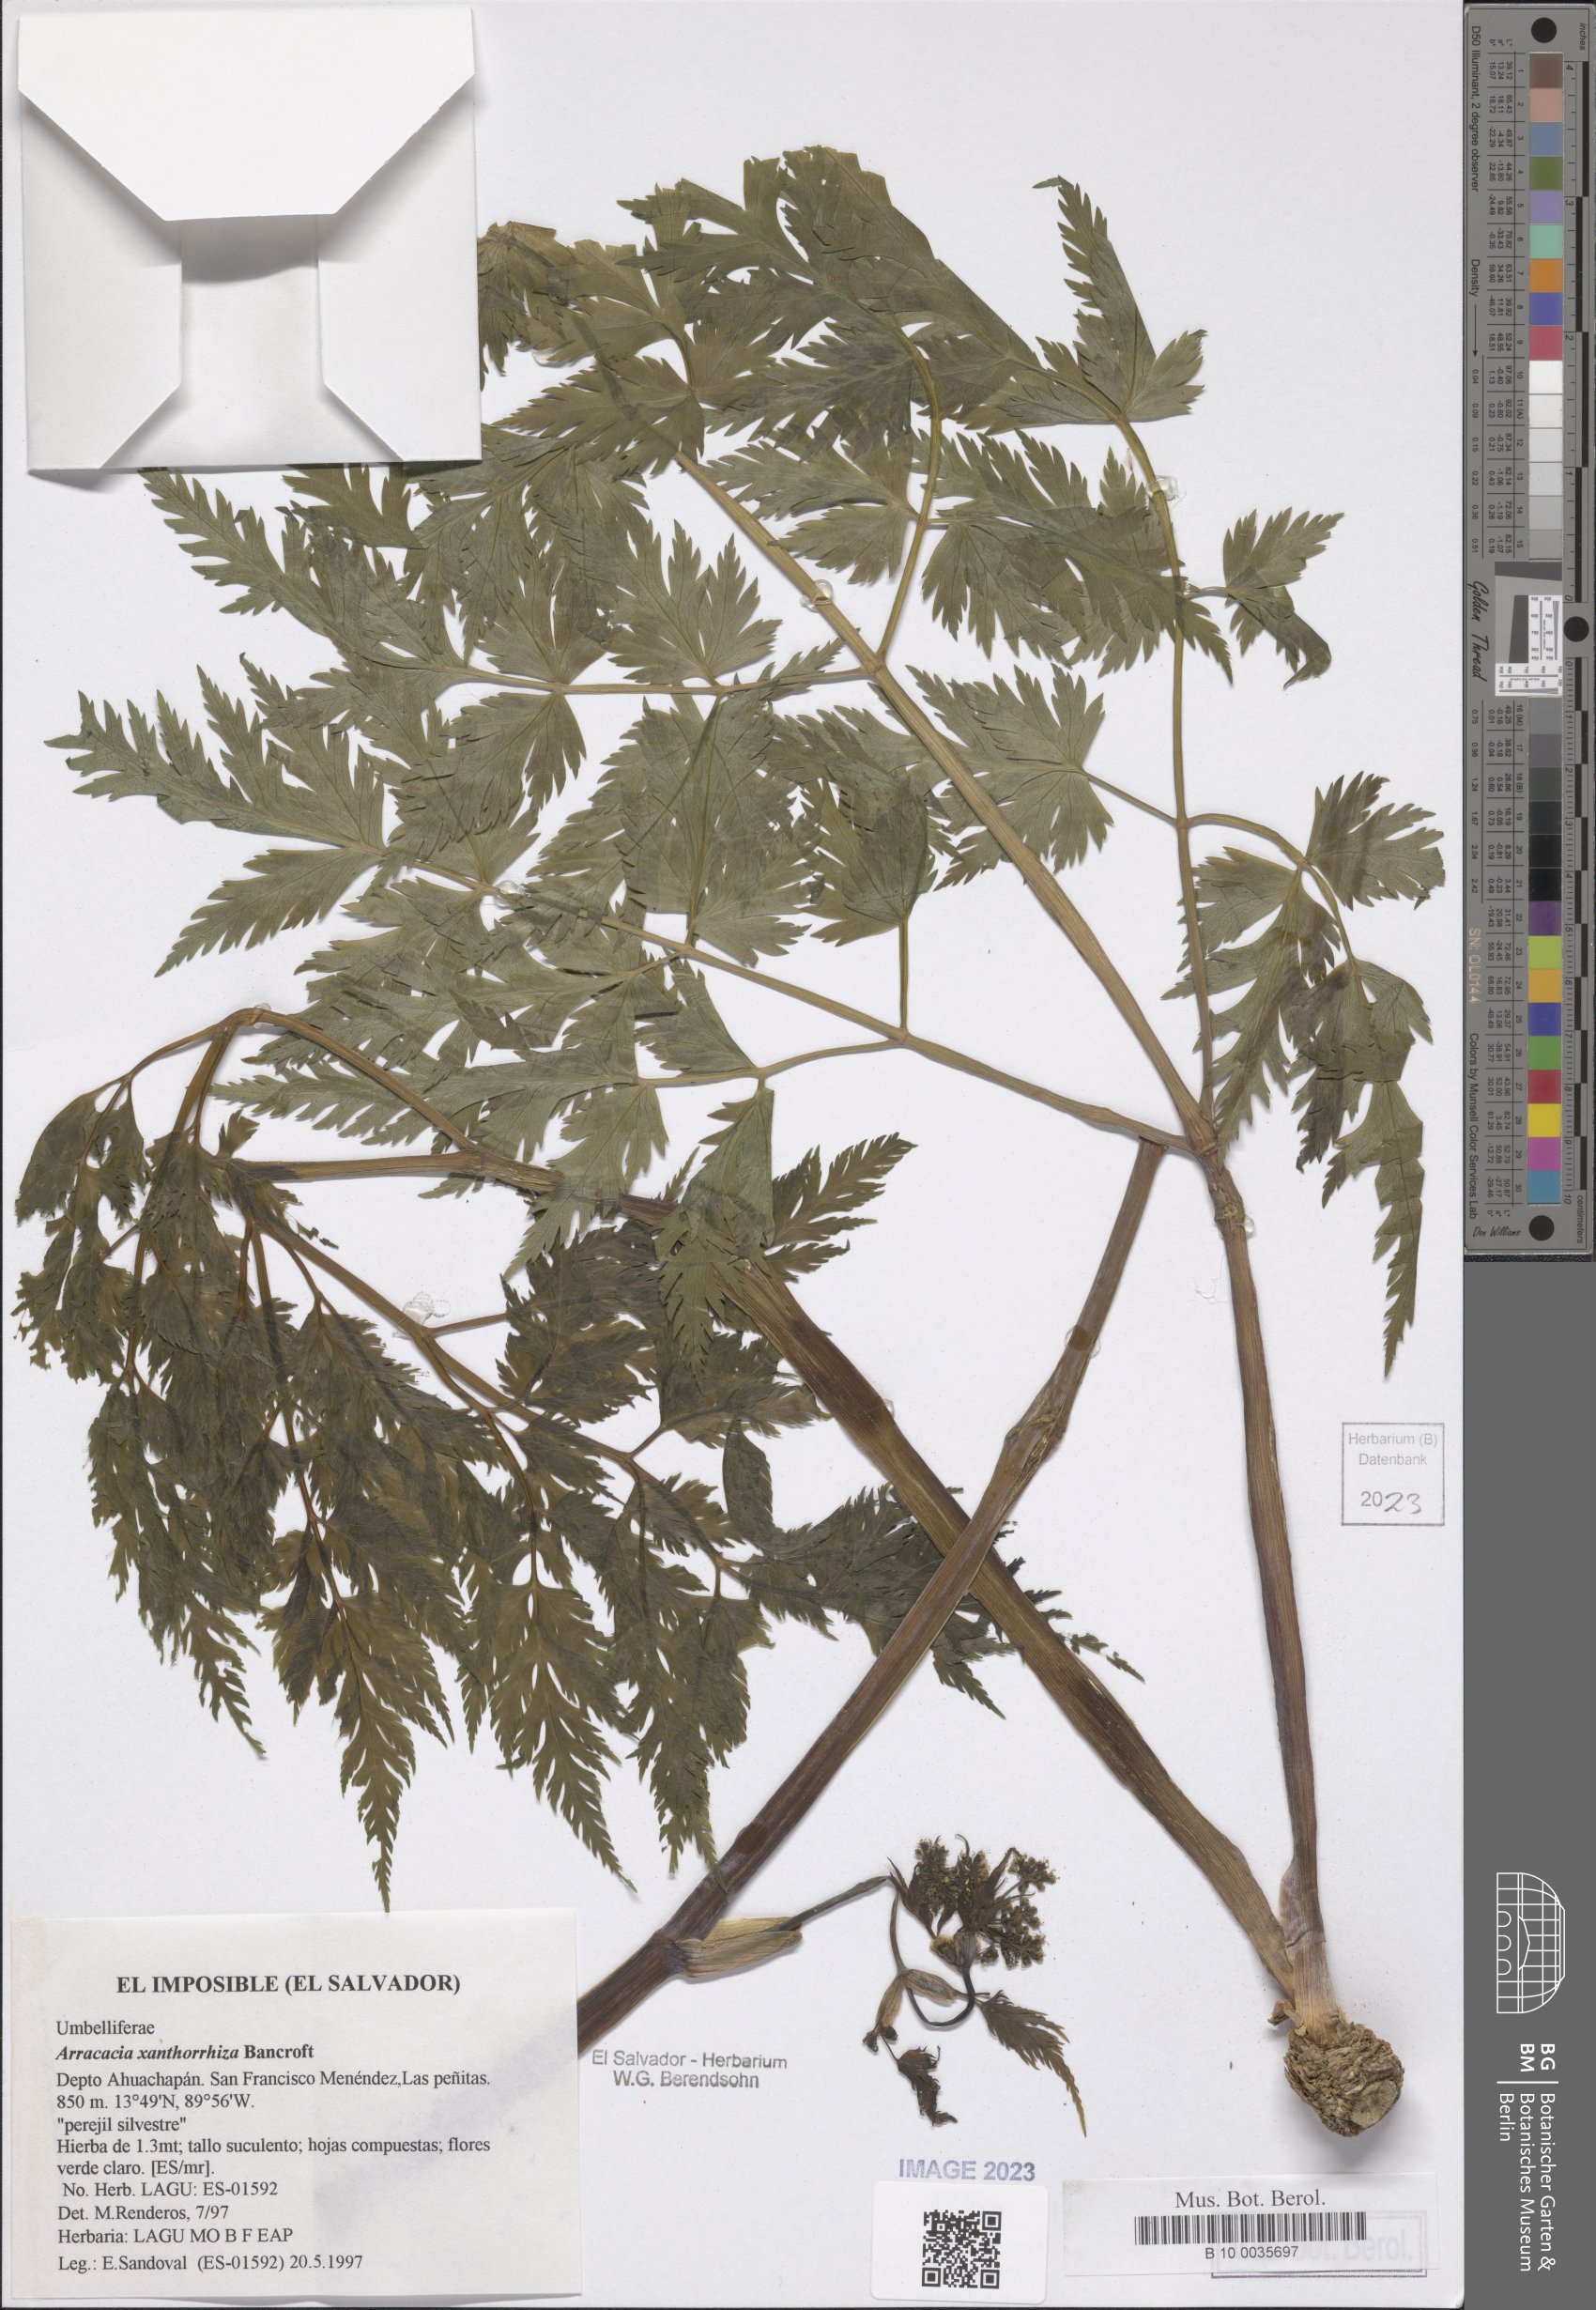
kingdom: Plantae
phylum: Tracheophyta
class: Magnoliopsida
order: Apiales
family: Apiaceae
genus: Arracacia
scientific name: Arracacia xanthorrhiza
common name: Peruvian-carrot
